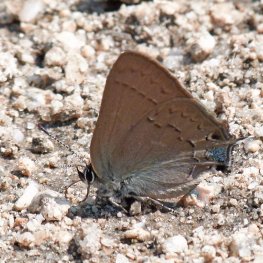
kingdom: Animalia
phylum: Arthropoda
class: Insecta
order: Lepidoptera
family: Lycaenidae
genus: Mitoura
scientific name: Mitoura nelsoni
